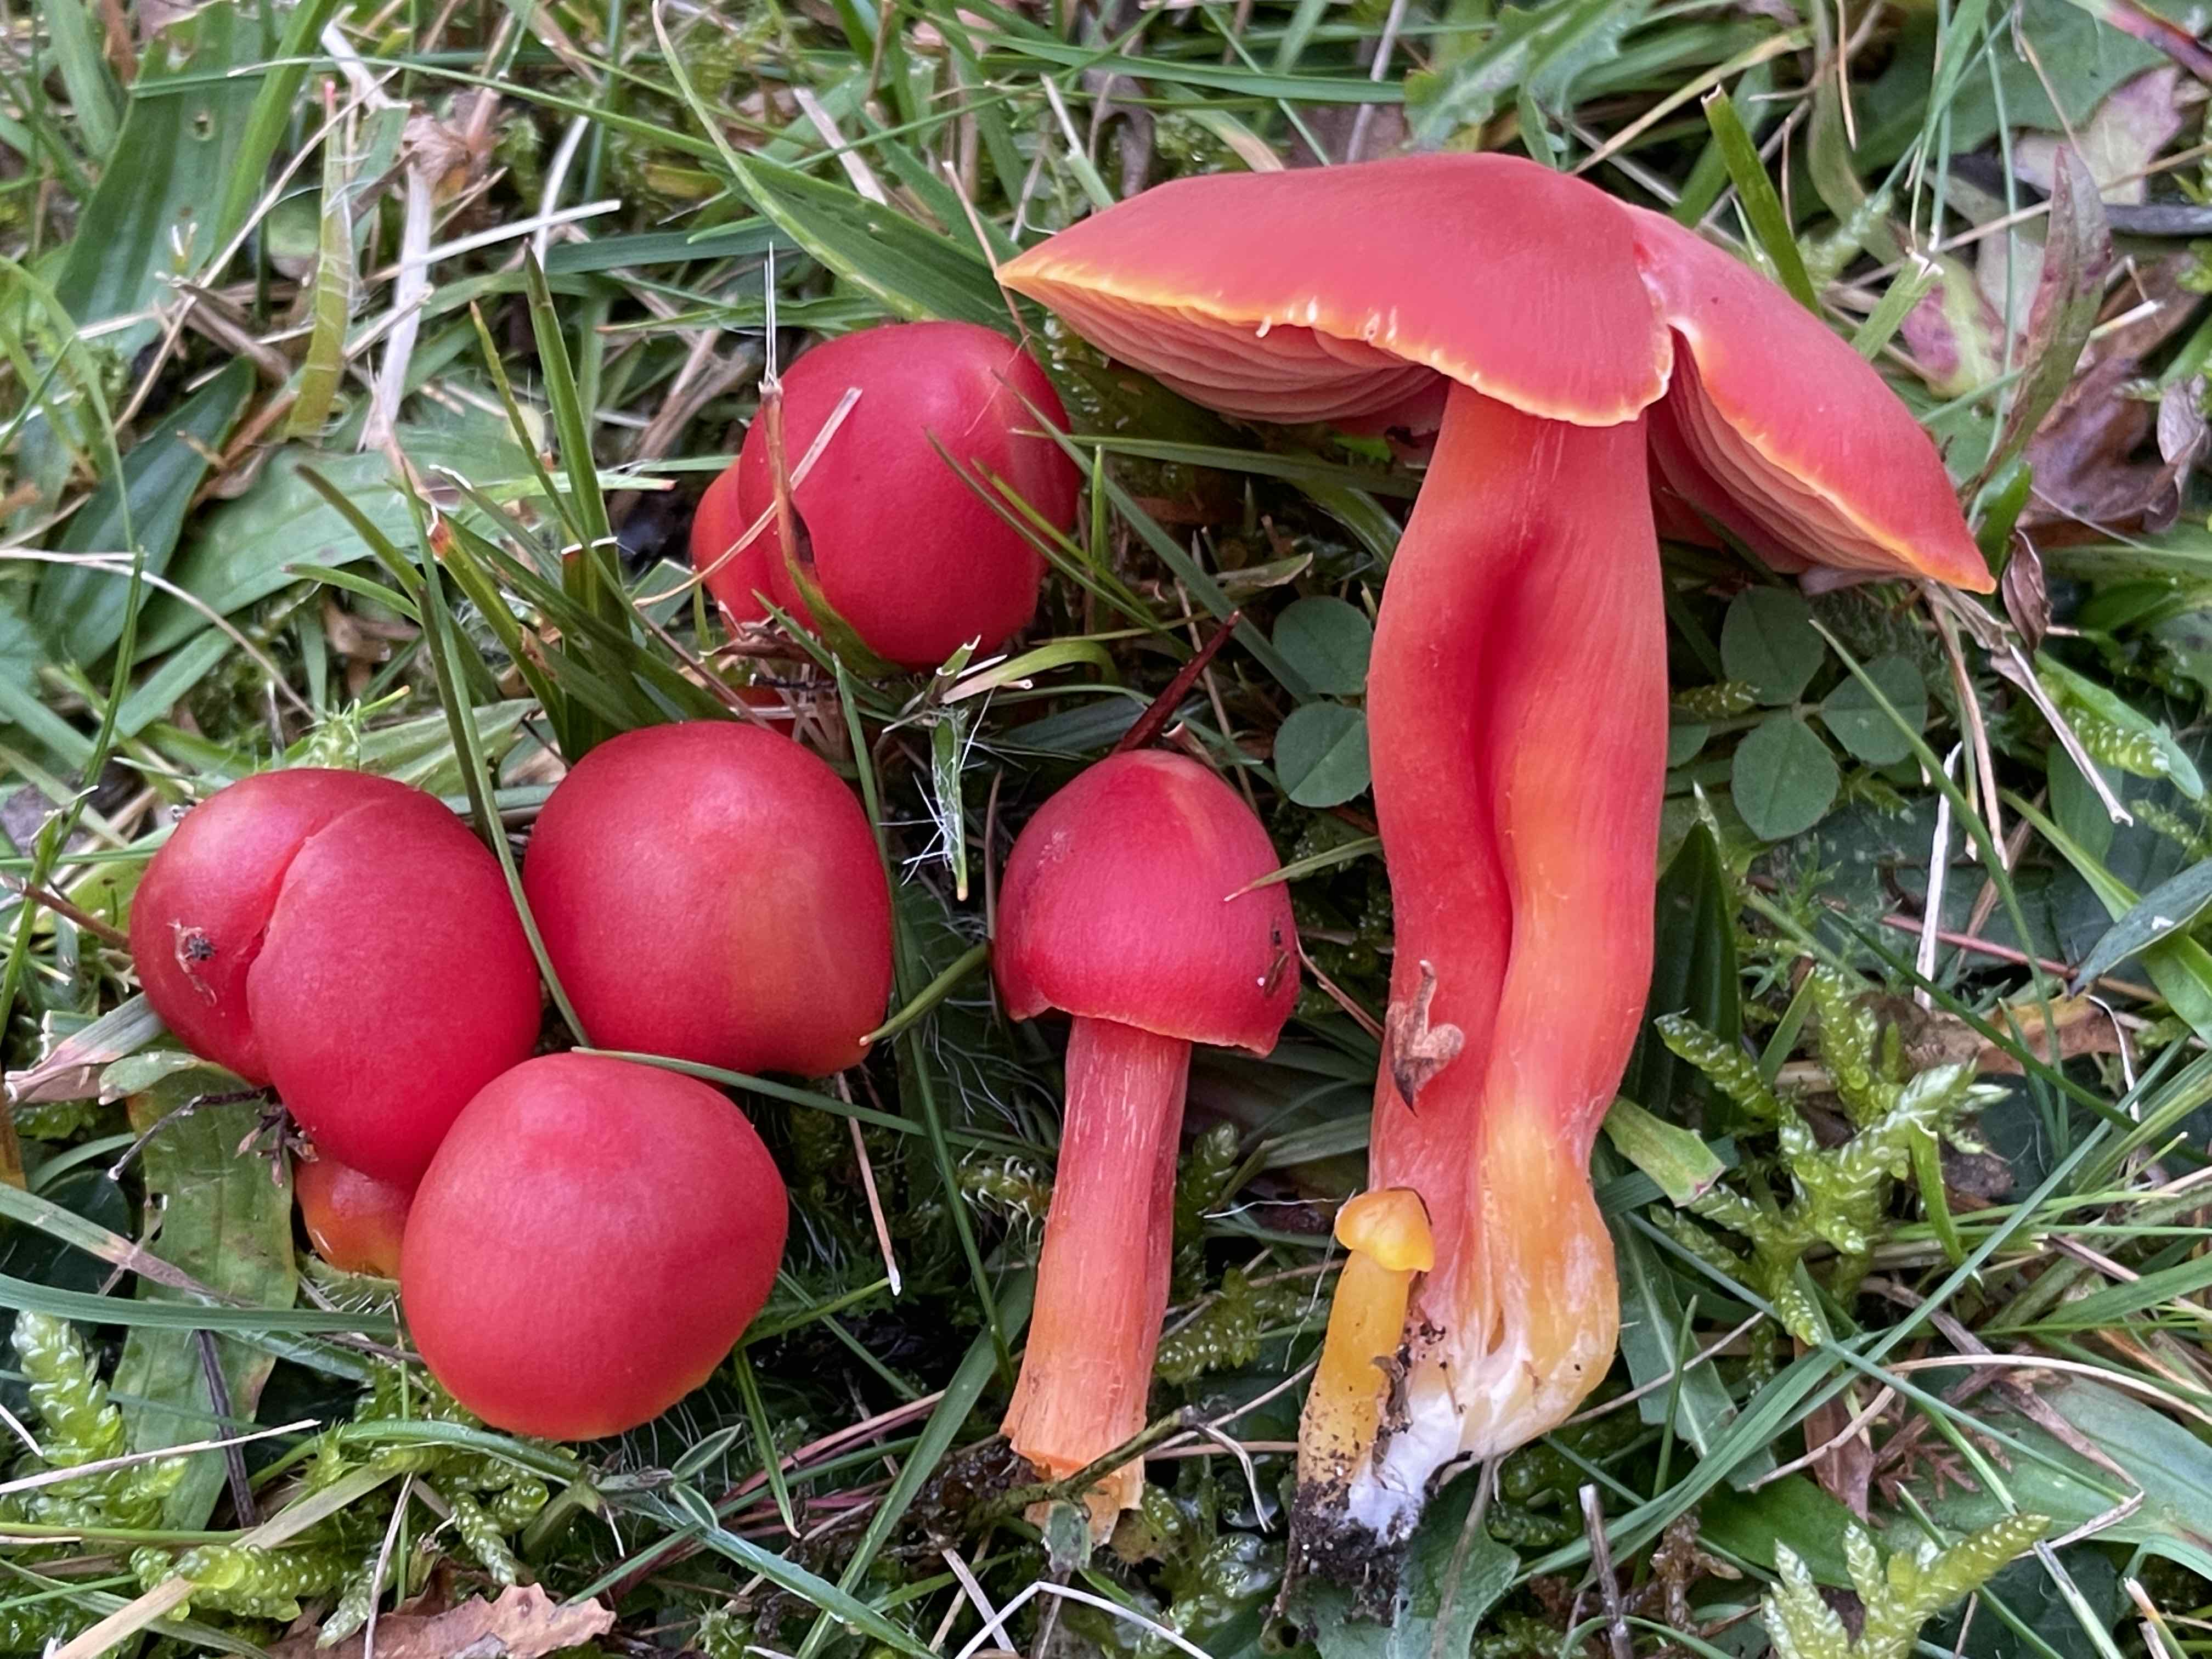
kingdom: Fungi
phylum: Basidiomycota
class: Agaricomycetes
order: Agaricales
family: Hygrophoraceae
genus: Hygrocybe
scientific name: Hygrocybe splendidissima
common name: knaldrød vokshat
